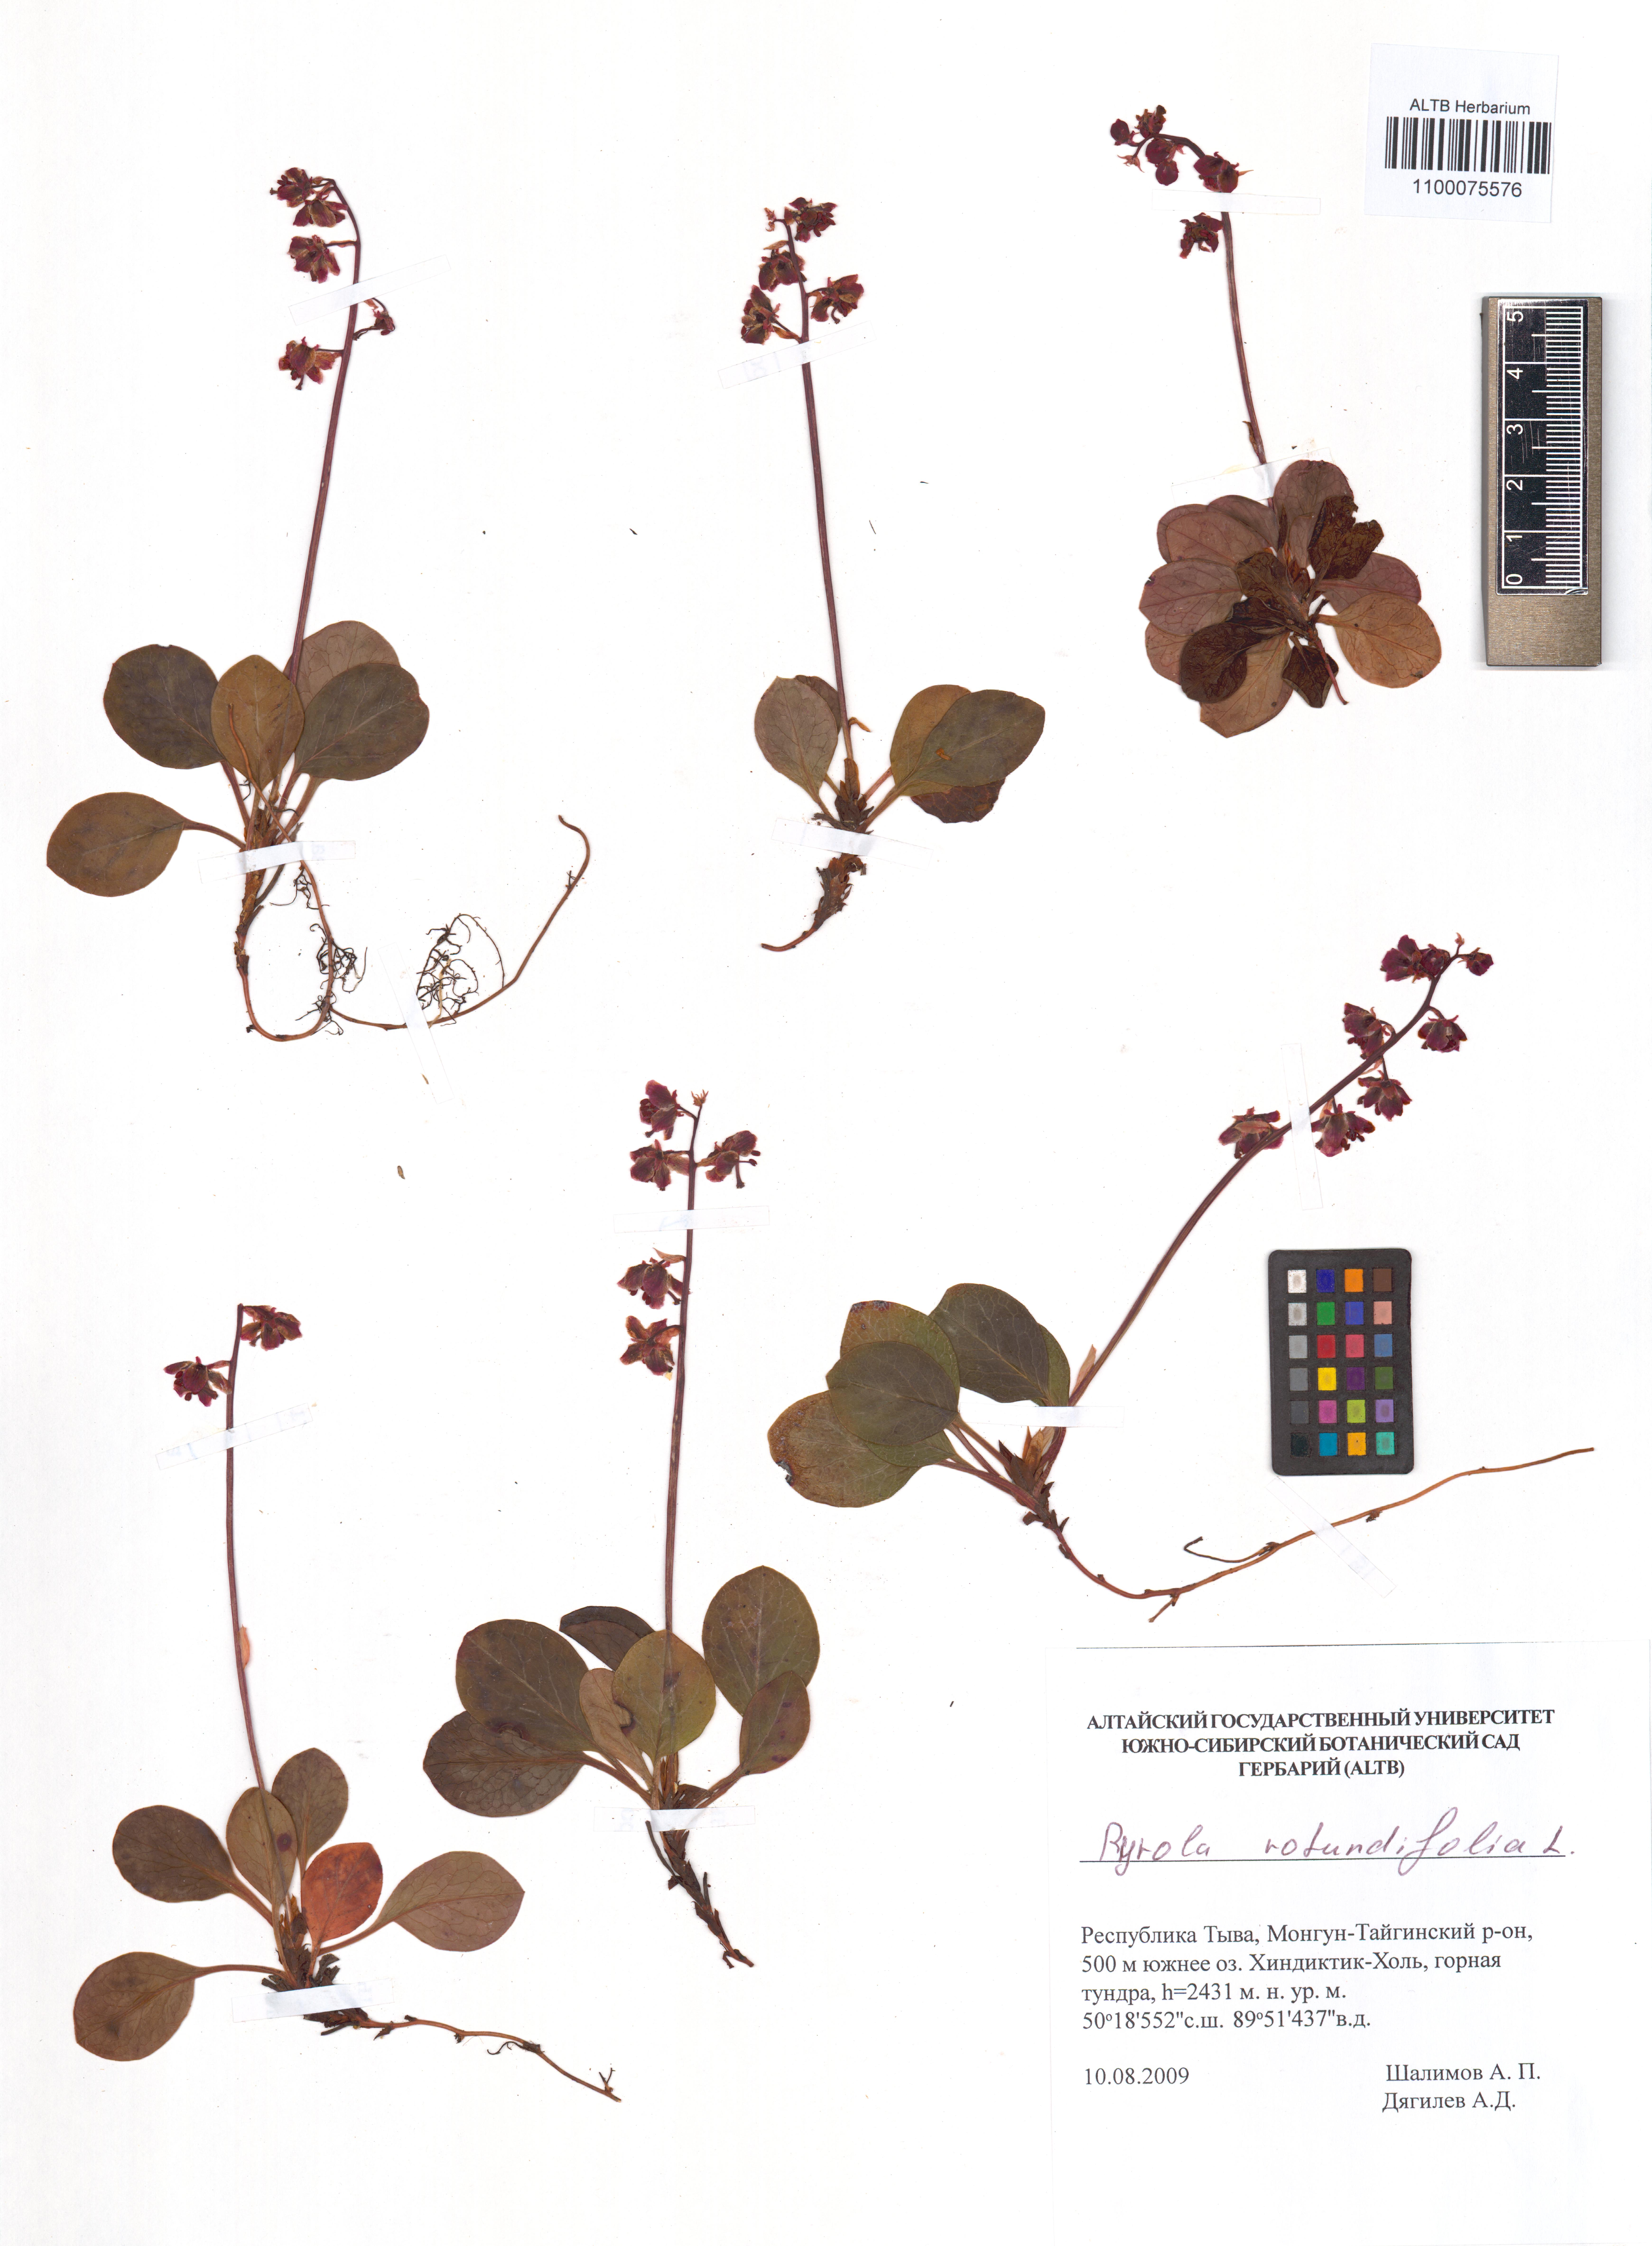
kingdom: Plantae
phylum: Tracheophyta
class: Magnoliopsida
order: Ericales
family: Ericaceae
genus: Pyrola
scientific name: Pyrola rotundifolia
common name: Round-leaved wintergreen
